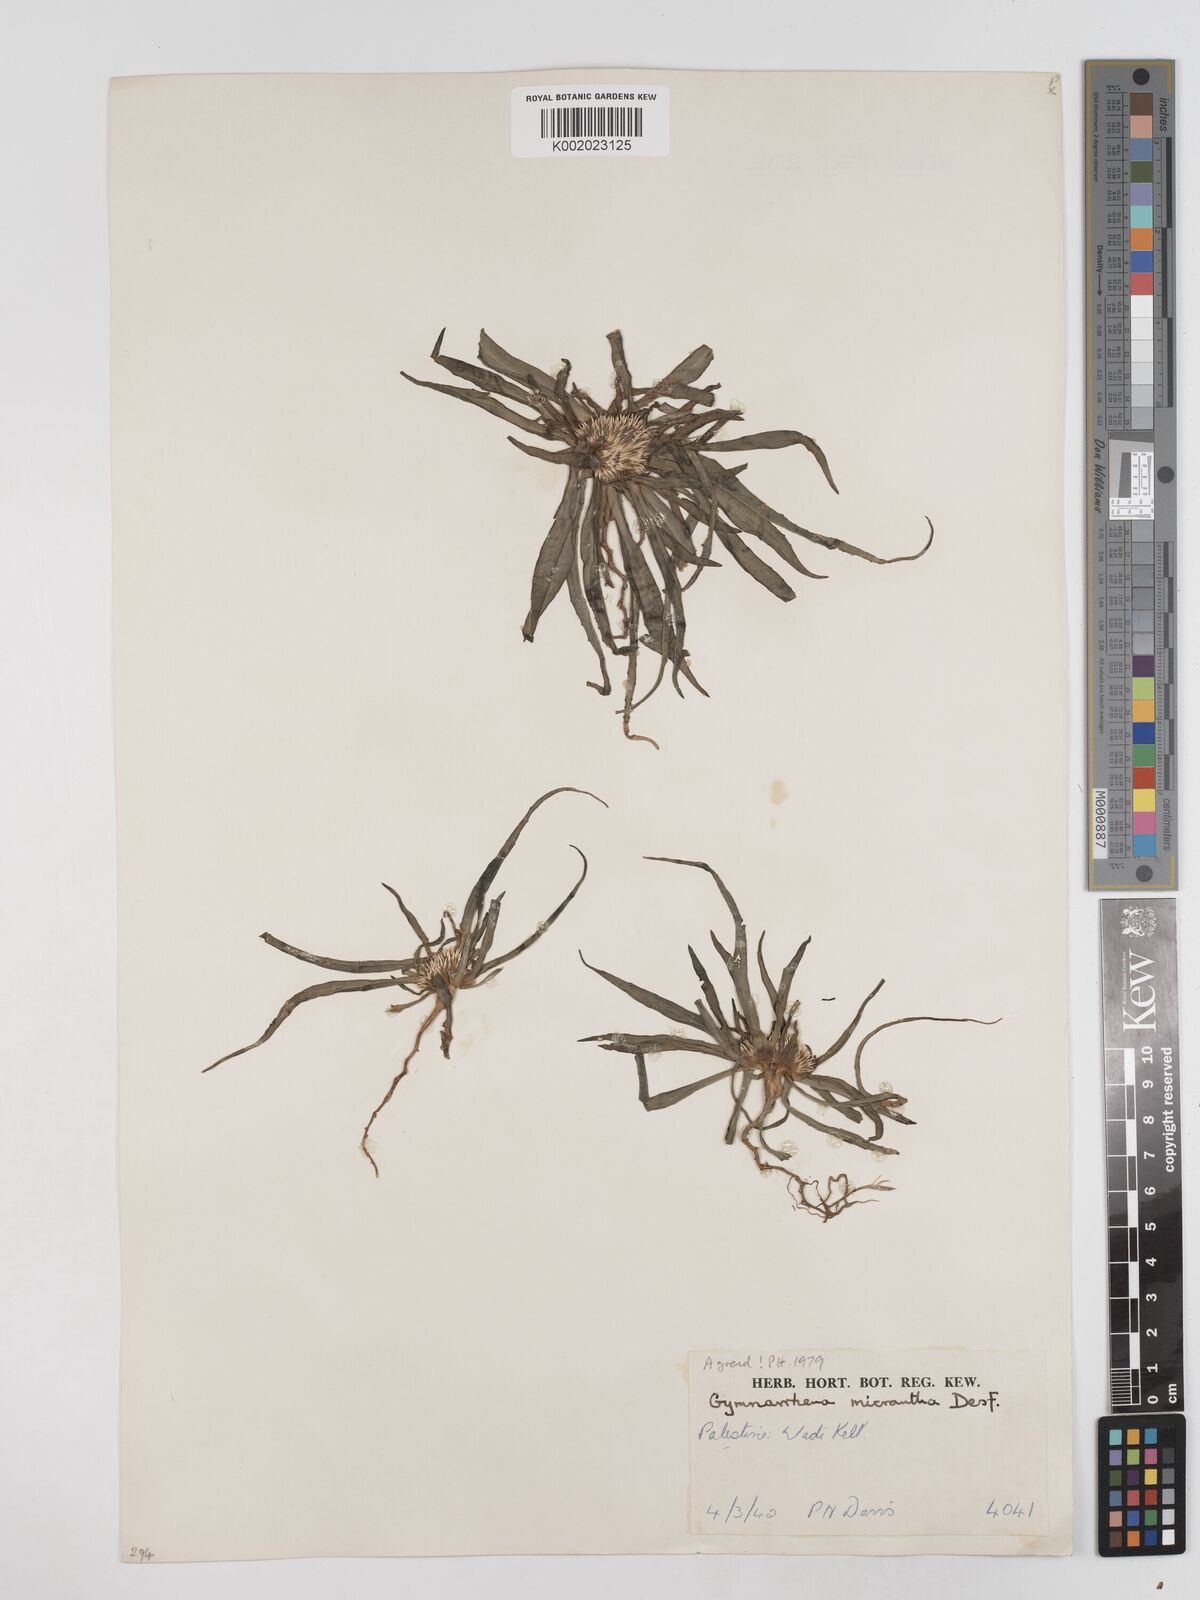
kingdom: Plantae
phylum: Tracheophyta
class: Magnoliopsida
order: Asterales
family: Asteraceae
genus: Gymnarrhena
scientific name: Gymnarrhena micrantha
